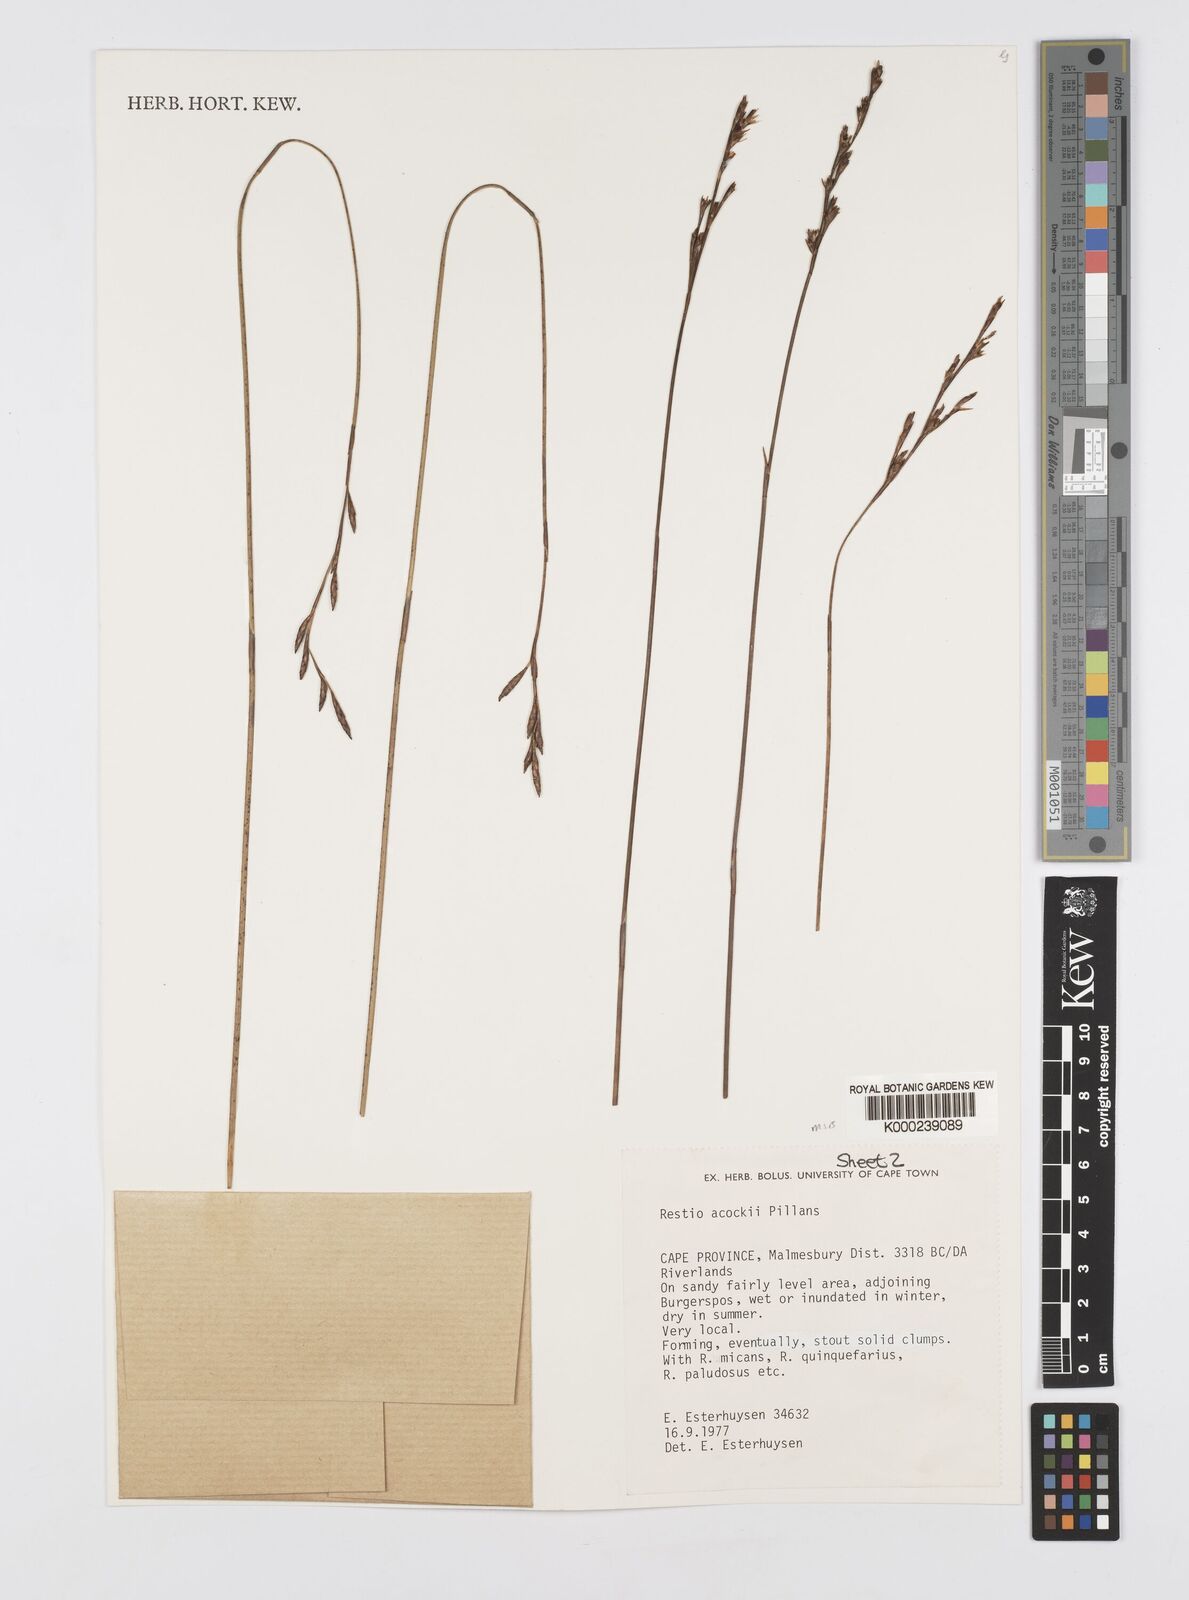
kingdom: Plantae
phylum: Tracheophyta
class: Liliopsida
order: Poales
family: Restionaceae
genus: Restio
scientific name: Restio acockii
